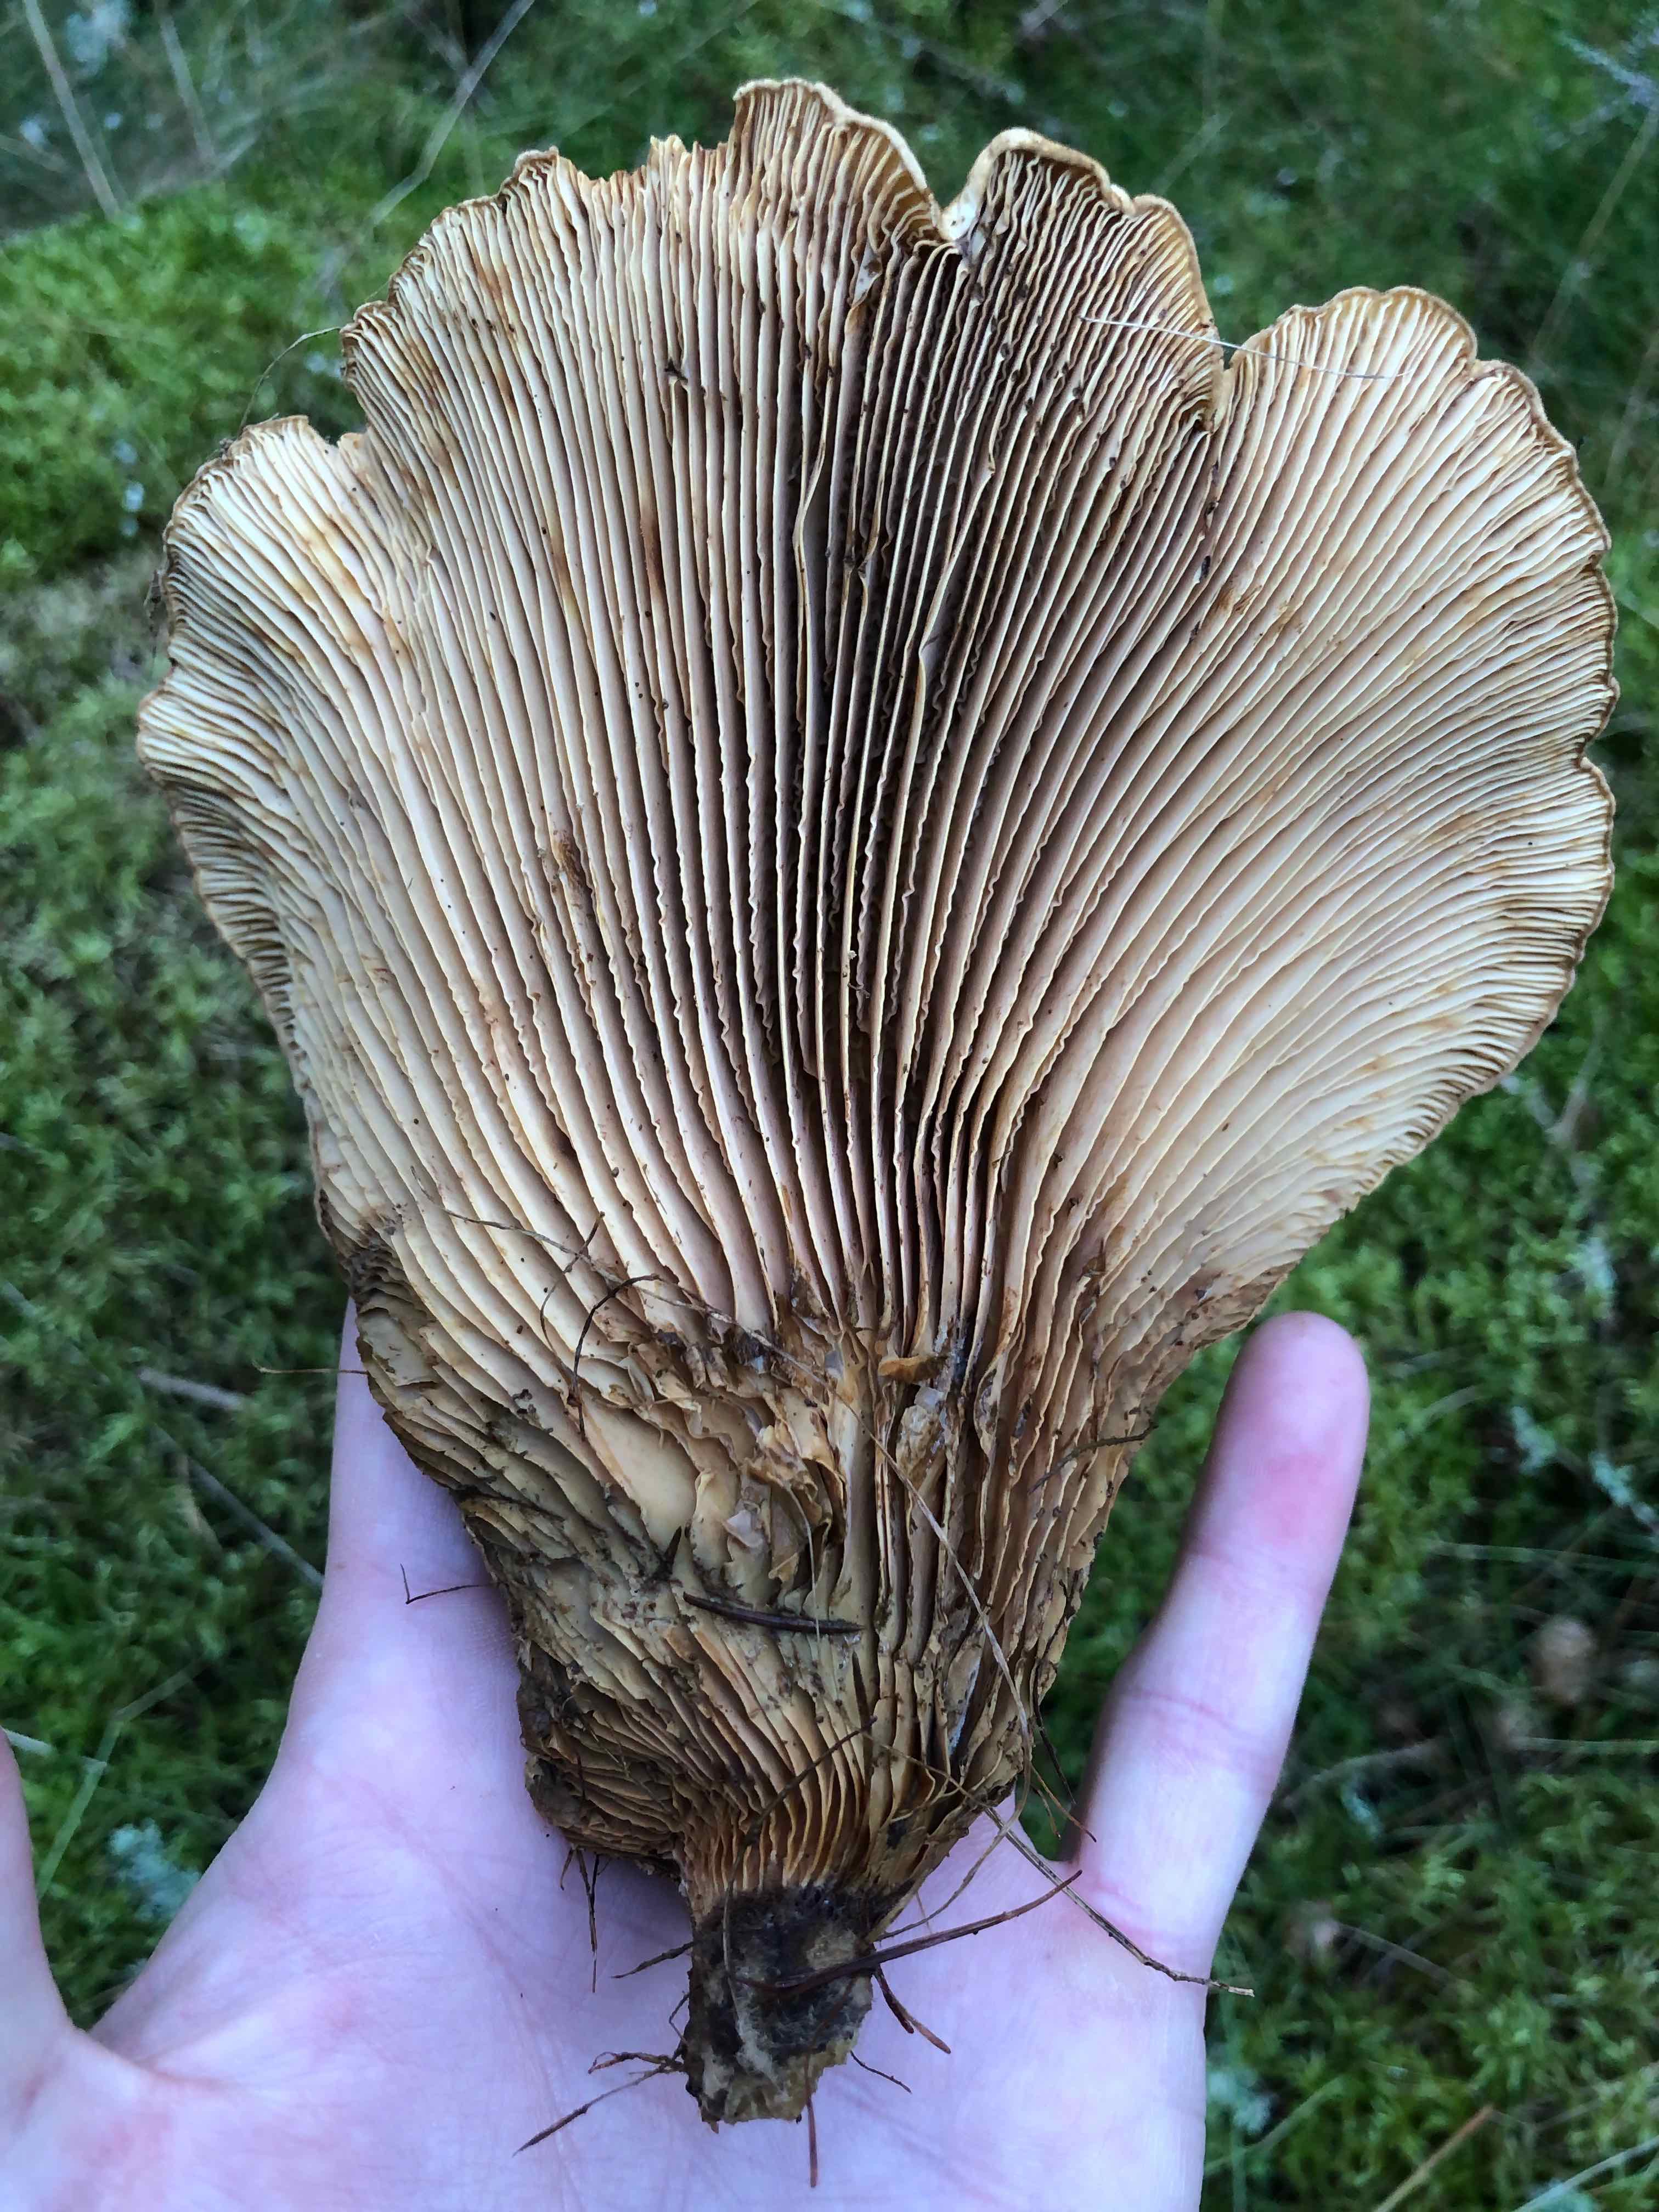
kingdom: Fungi
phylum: Basidiomycota
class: Agaricomycetes
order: Boletales
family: Tapinellaceae
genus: Tapinella
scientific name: Tapinella atrotomentosa
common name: sortfiltet viftesvamp
